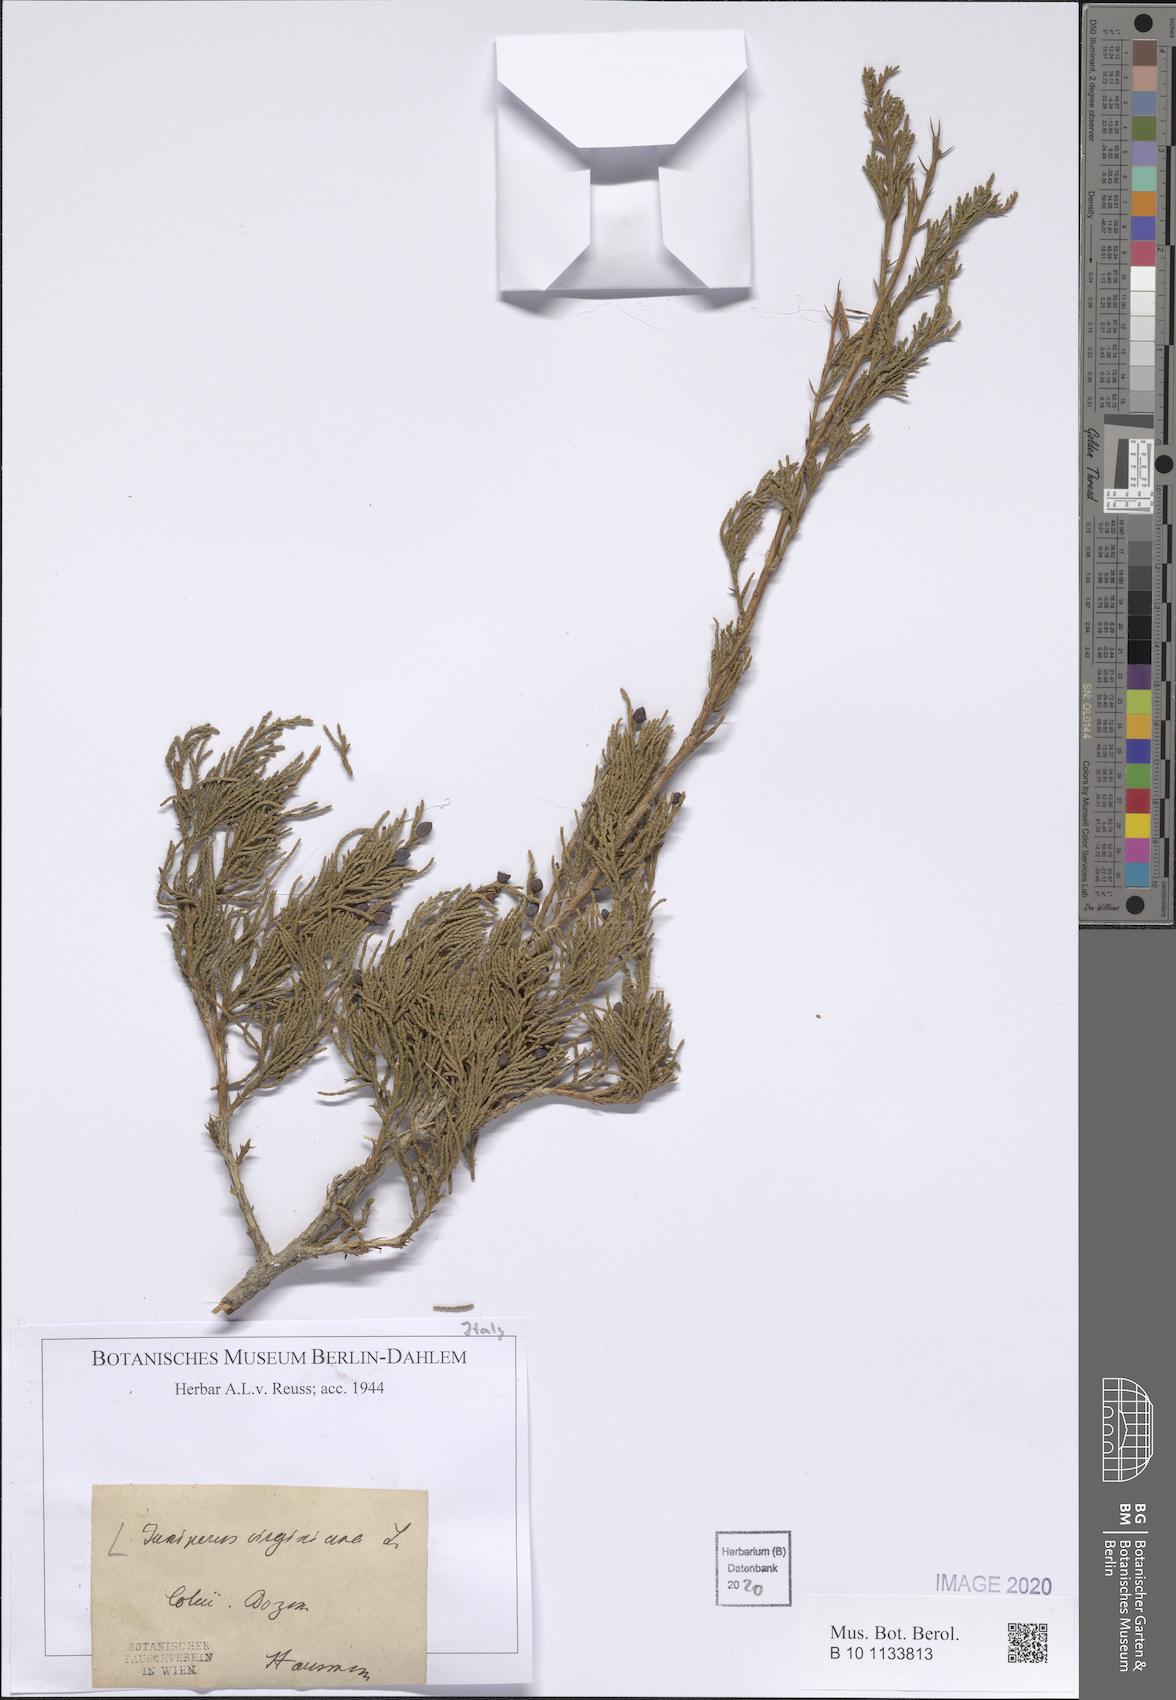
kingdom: Plantae
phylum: Tracheophyta
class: Pinopsida
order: Pinales
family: Cupressaceae
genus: Juniperus
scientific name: Juniperus virginiana
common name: Red juniper
